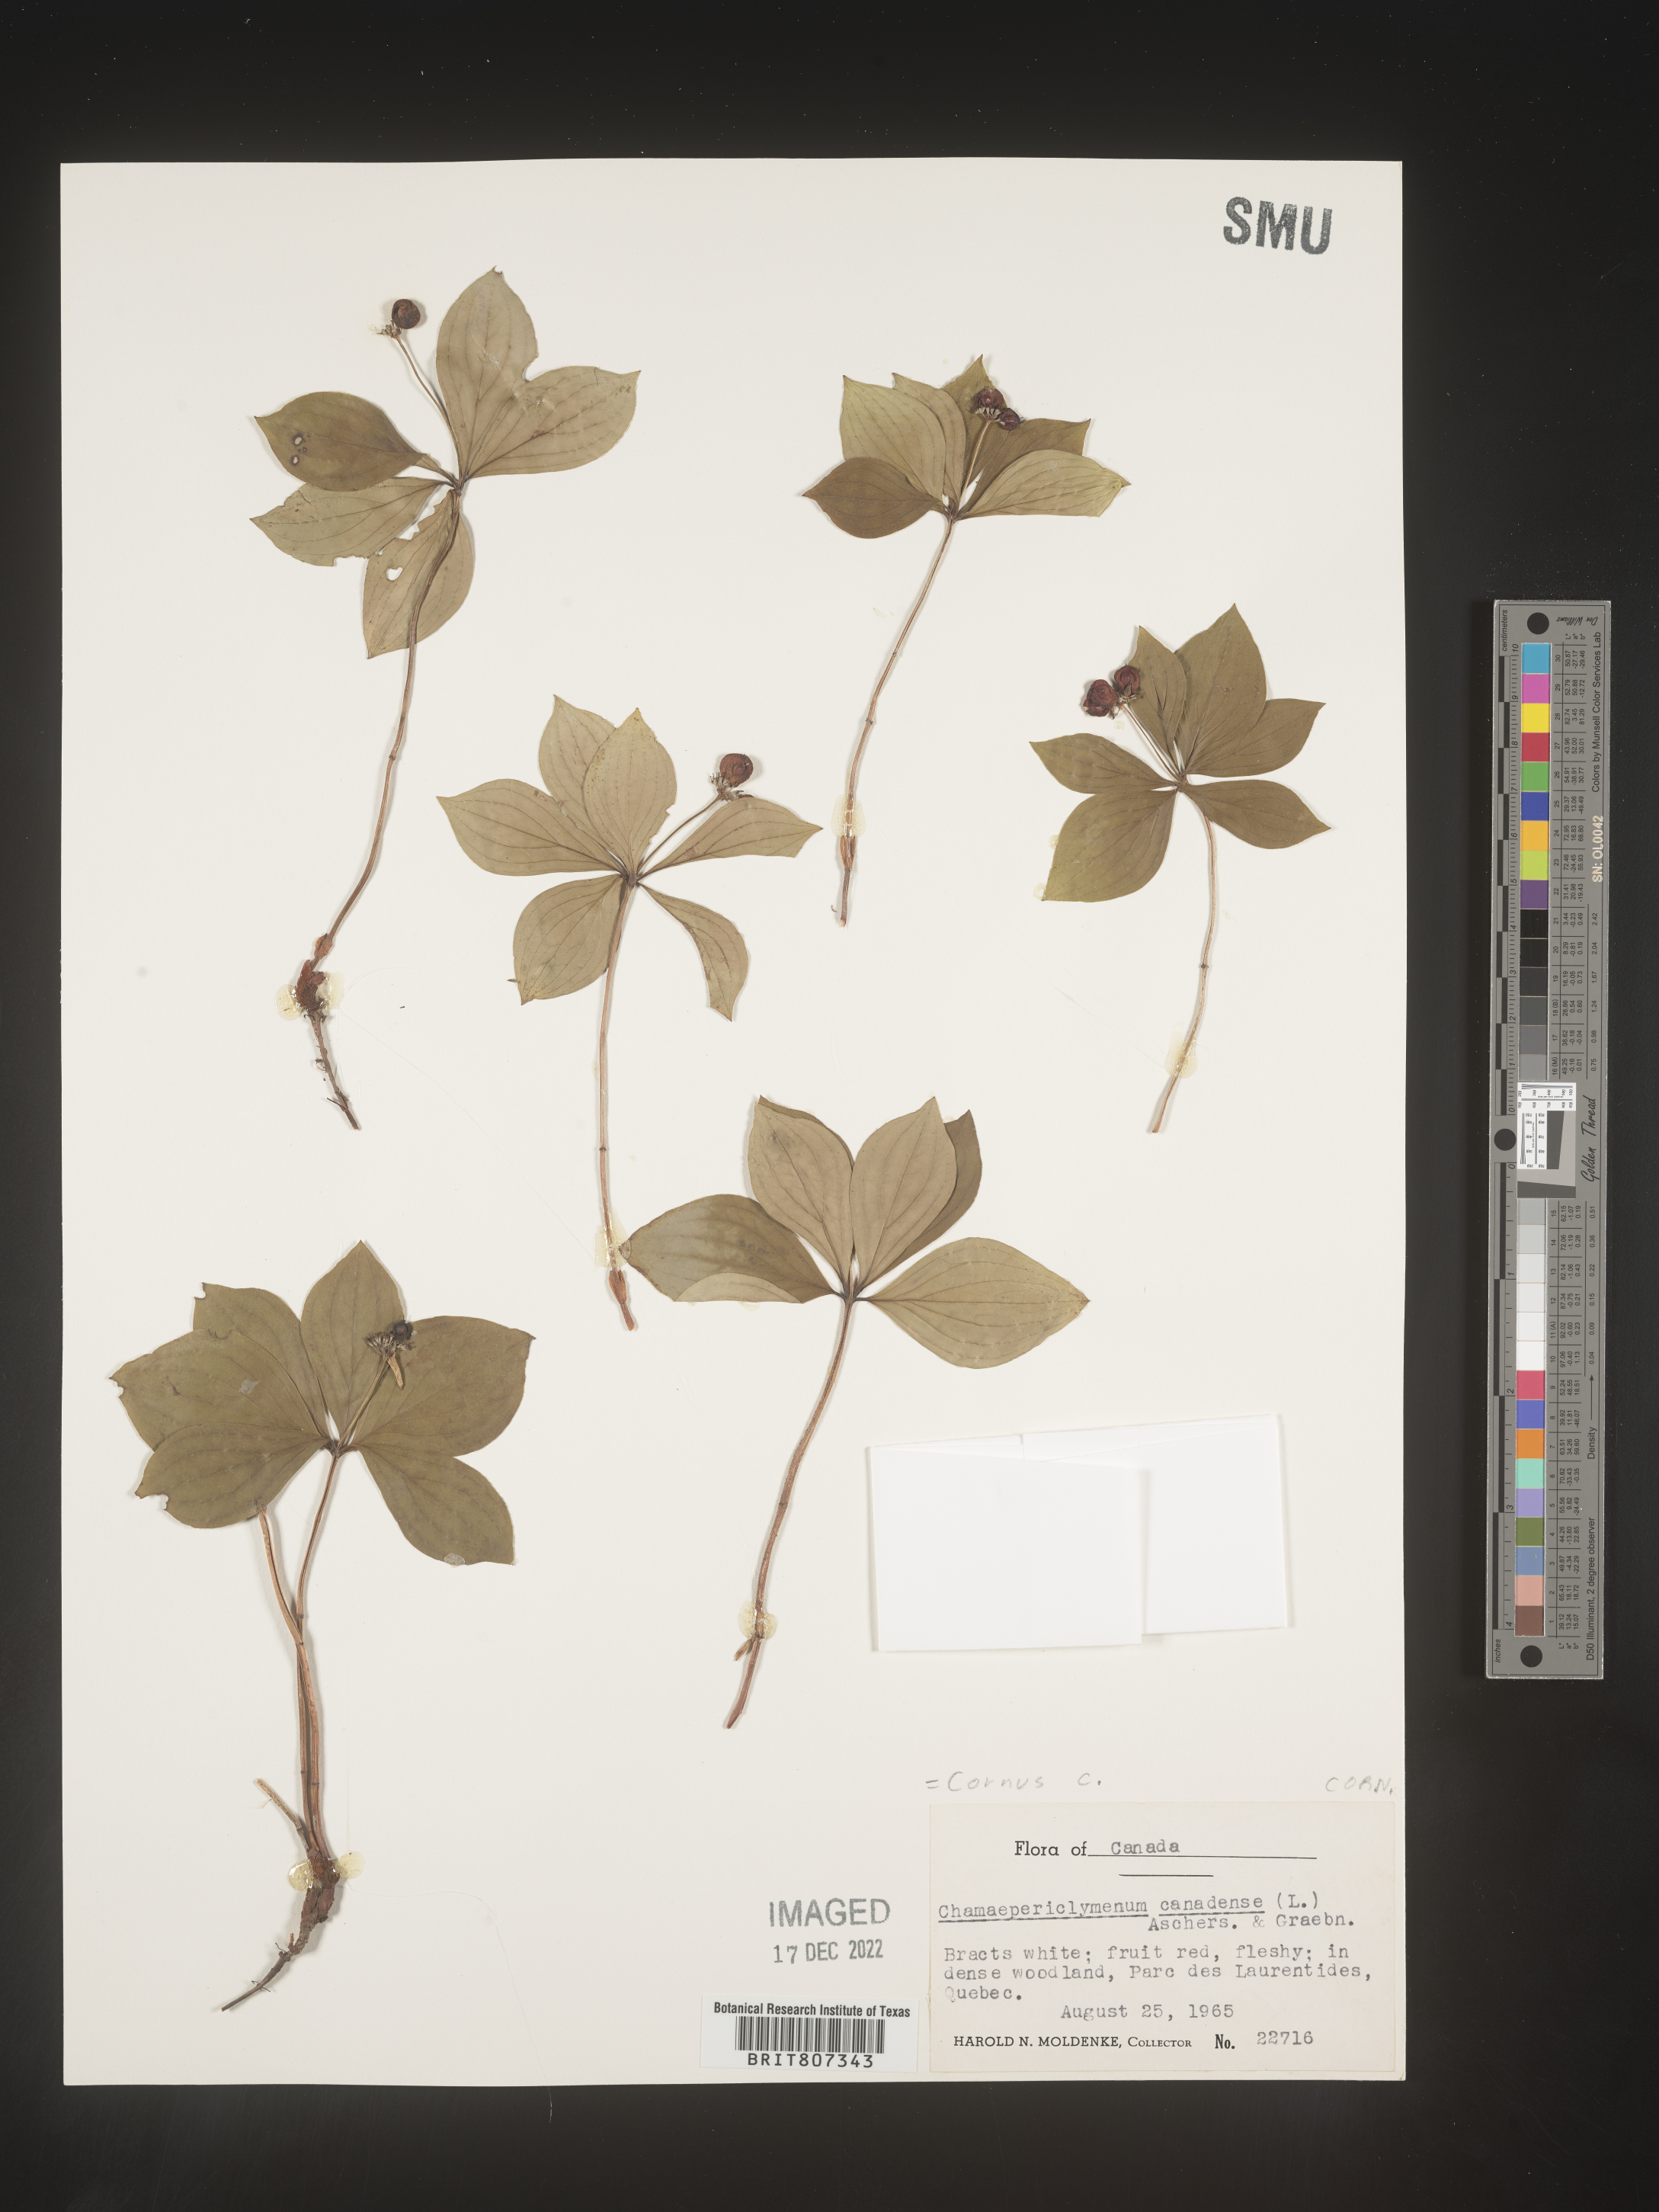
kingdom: Plantae
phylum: Tracheophyta
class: Magnoliopsida
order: Cornales
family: Cornaceae
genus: Cornus
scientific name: Cornus canadensis
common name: Creeping dogwood
